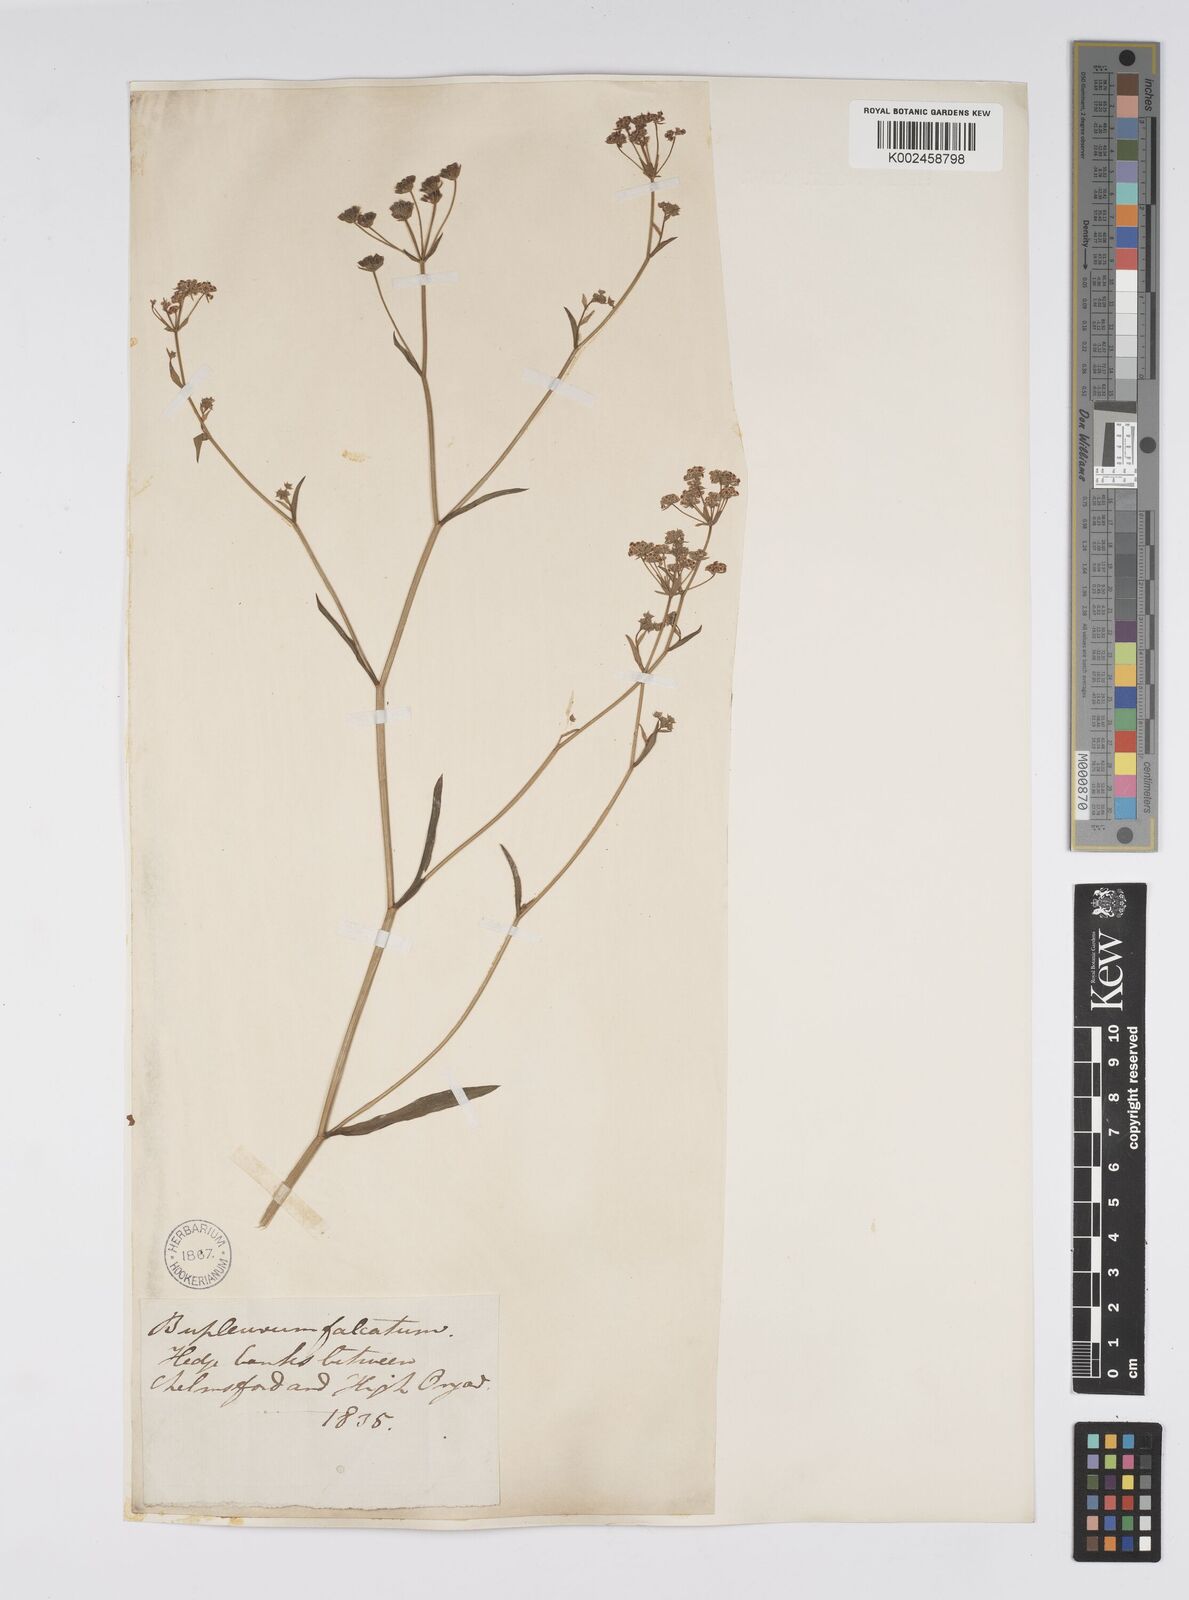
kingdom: Plantae
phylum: Tracheophyta
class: Magnoliopsida
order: Apiales
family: Apiaceae
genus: Bupleurum
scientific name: Bupleurum falcatum
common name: Sickle-leaved hare's-ear
